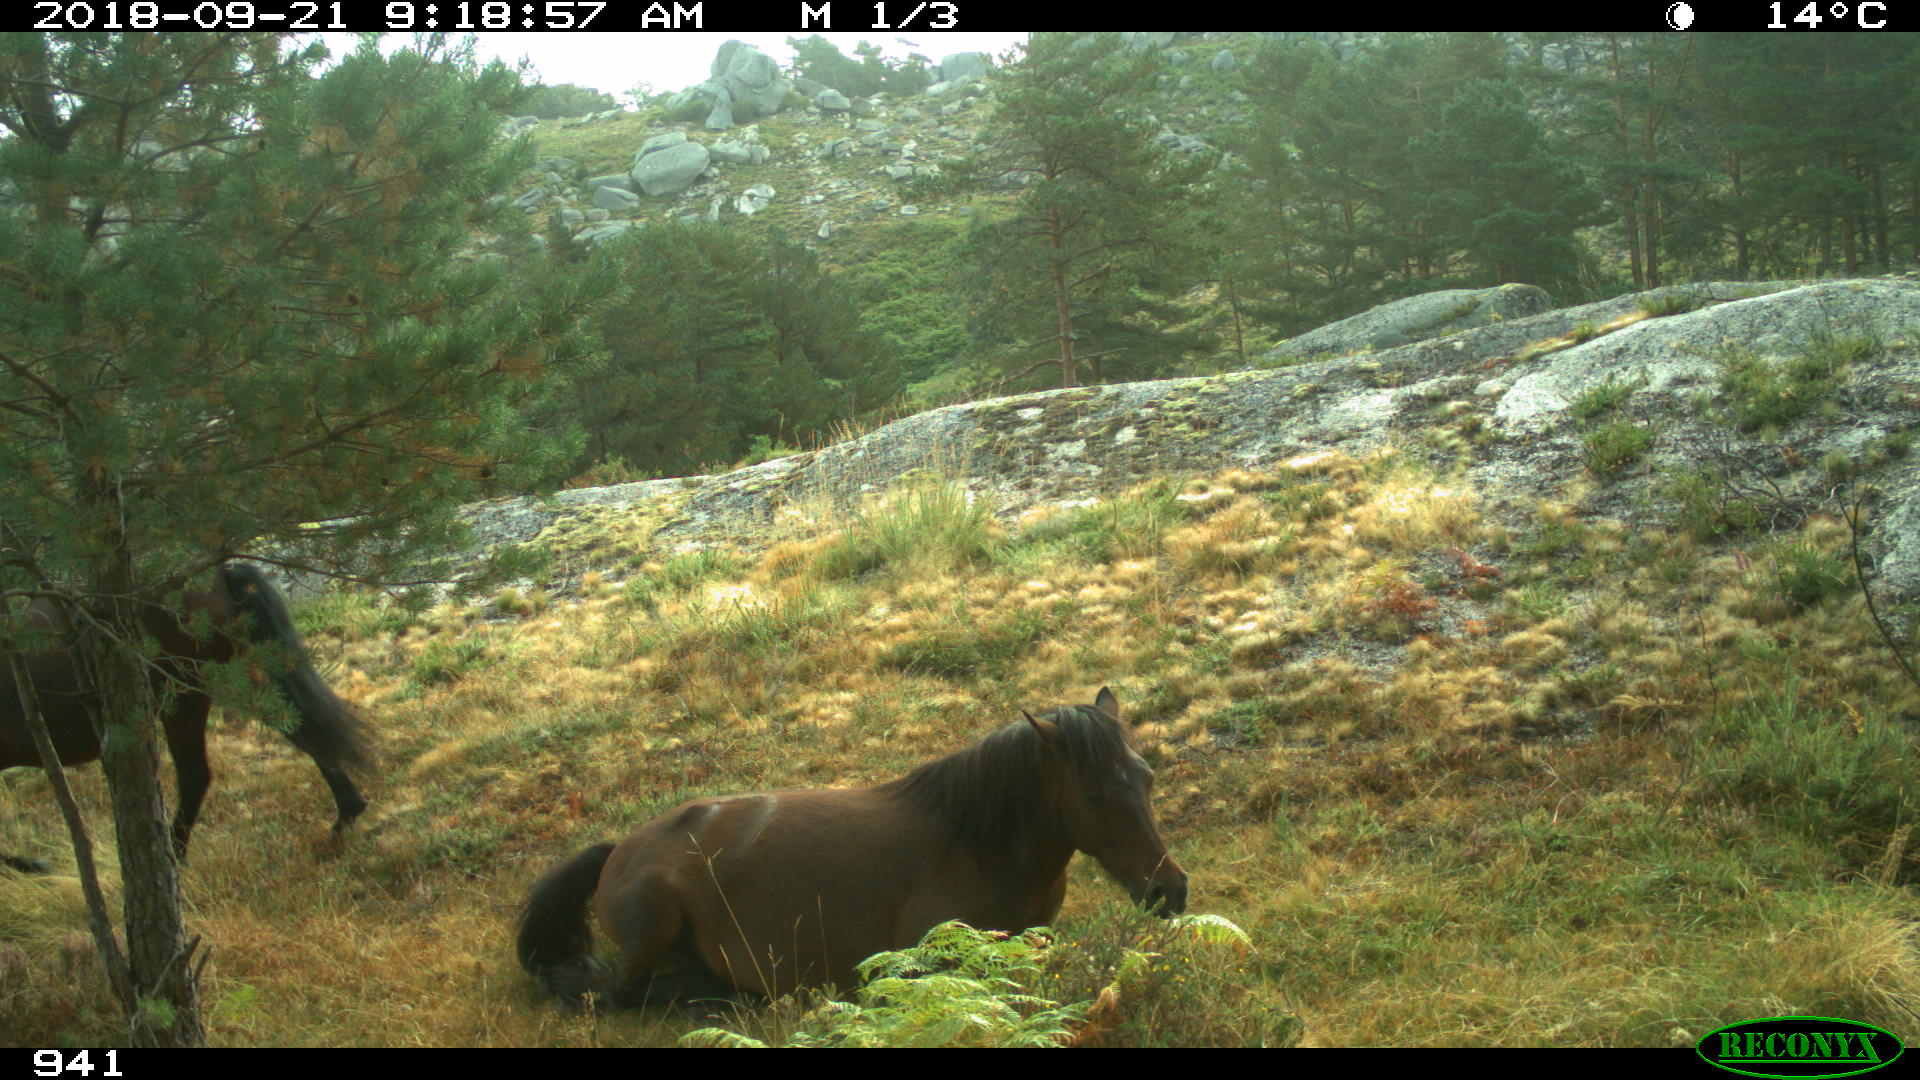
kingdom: Animalia
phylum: Chordata
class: Mammalia
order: Perissodactyla
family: Equidae
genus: Equus
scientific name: Equus caballus
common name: Horse
